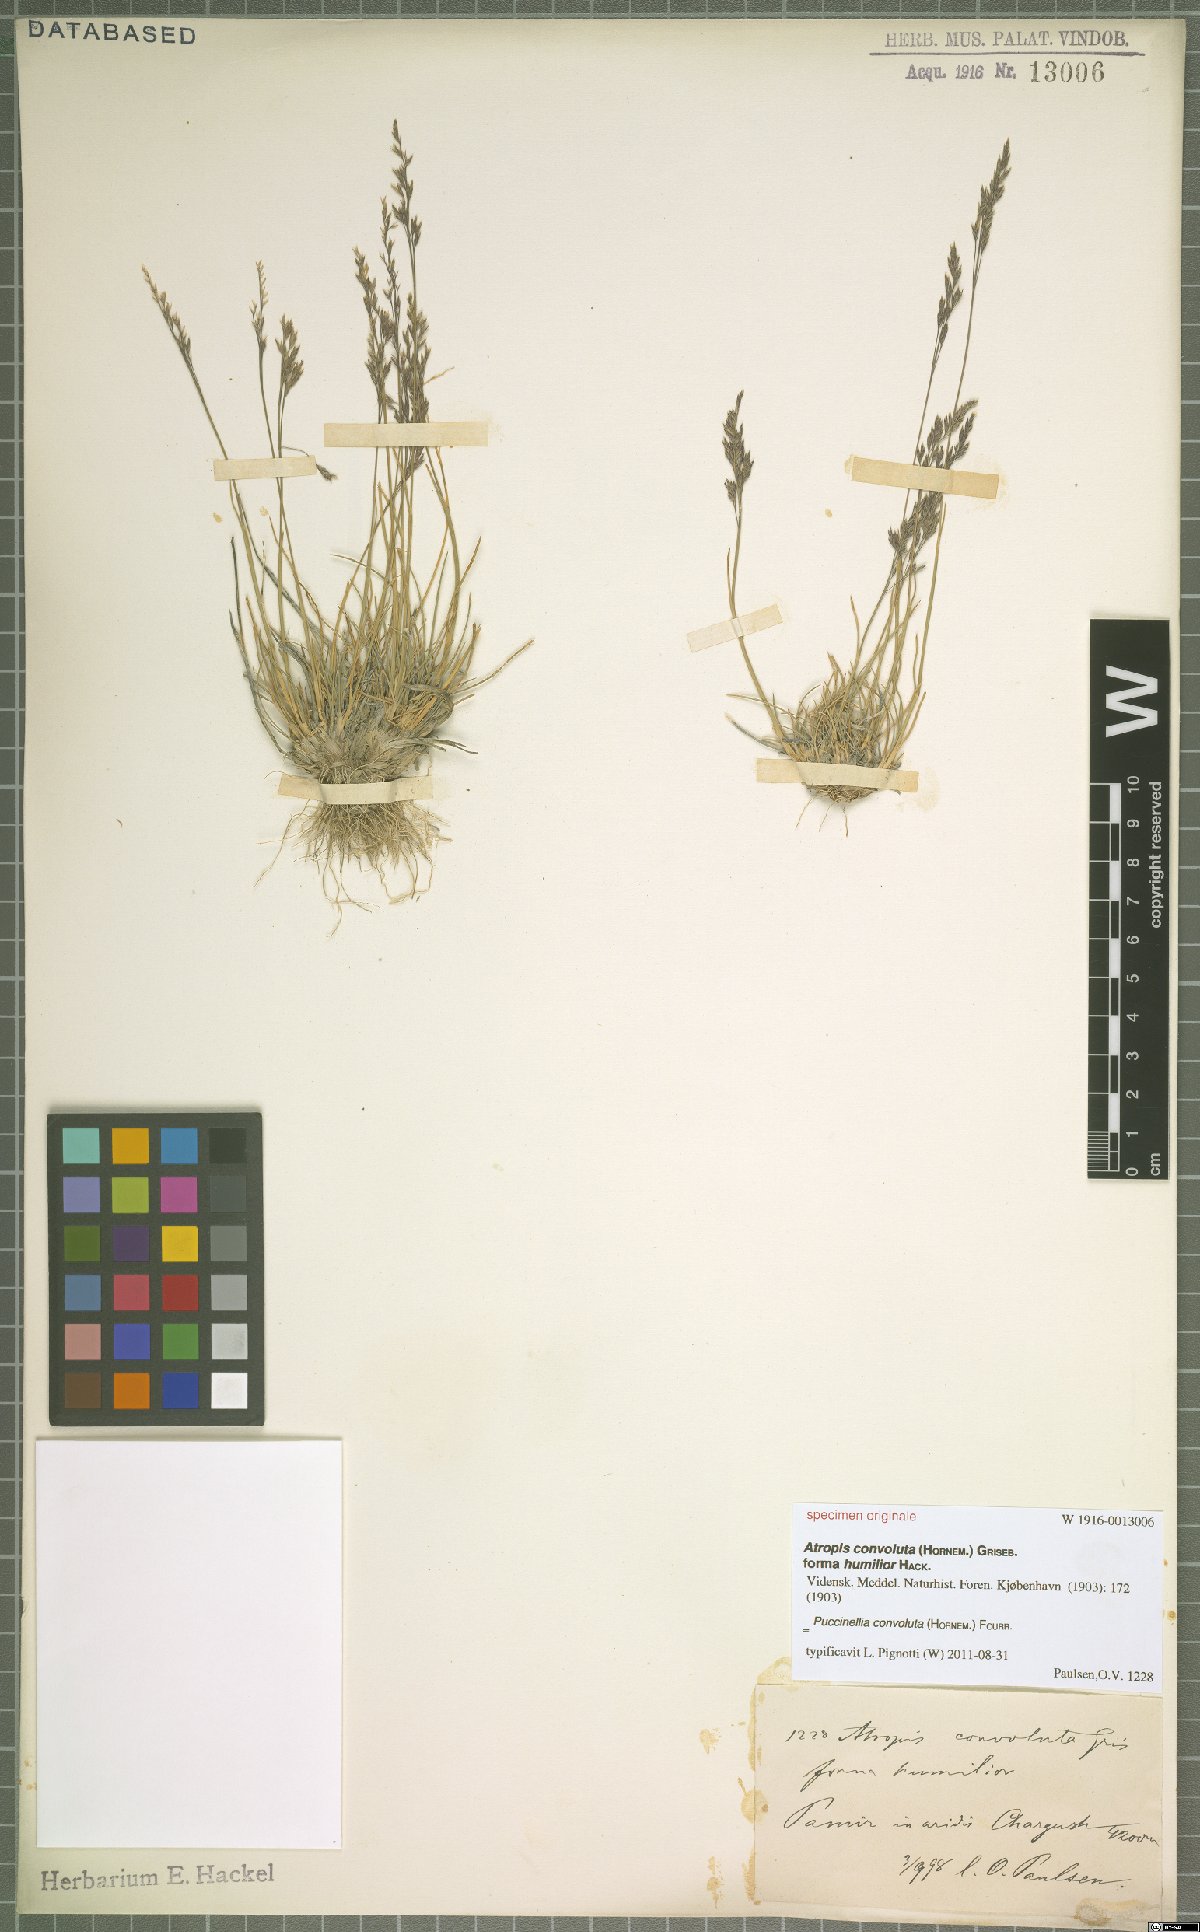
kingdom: Plantae
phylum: Tracheophyta
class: Liliopsida
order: Poales
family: Poaceae
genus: Puccinellia
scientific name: Puccinellia convoluta
